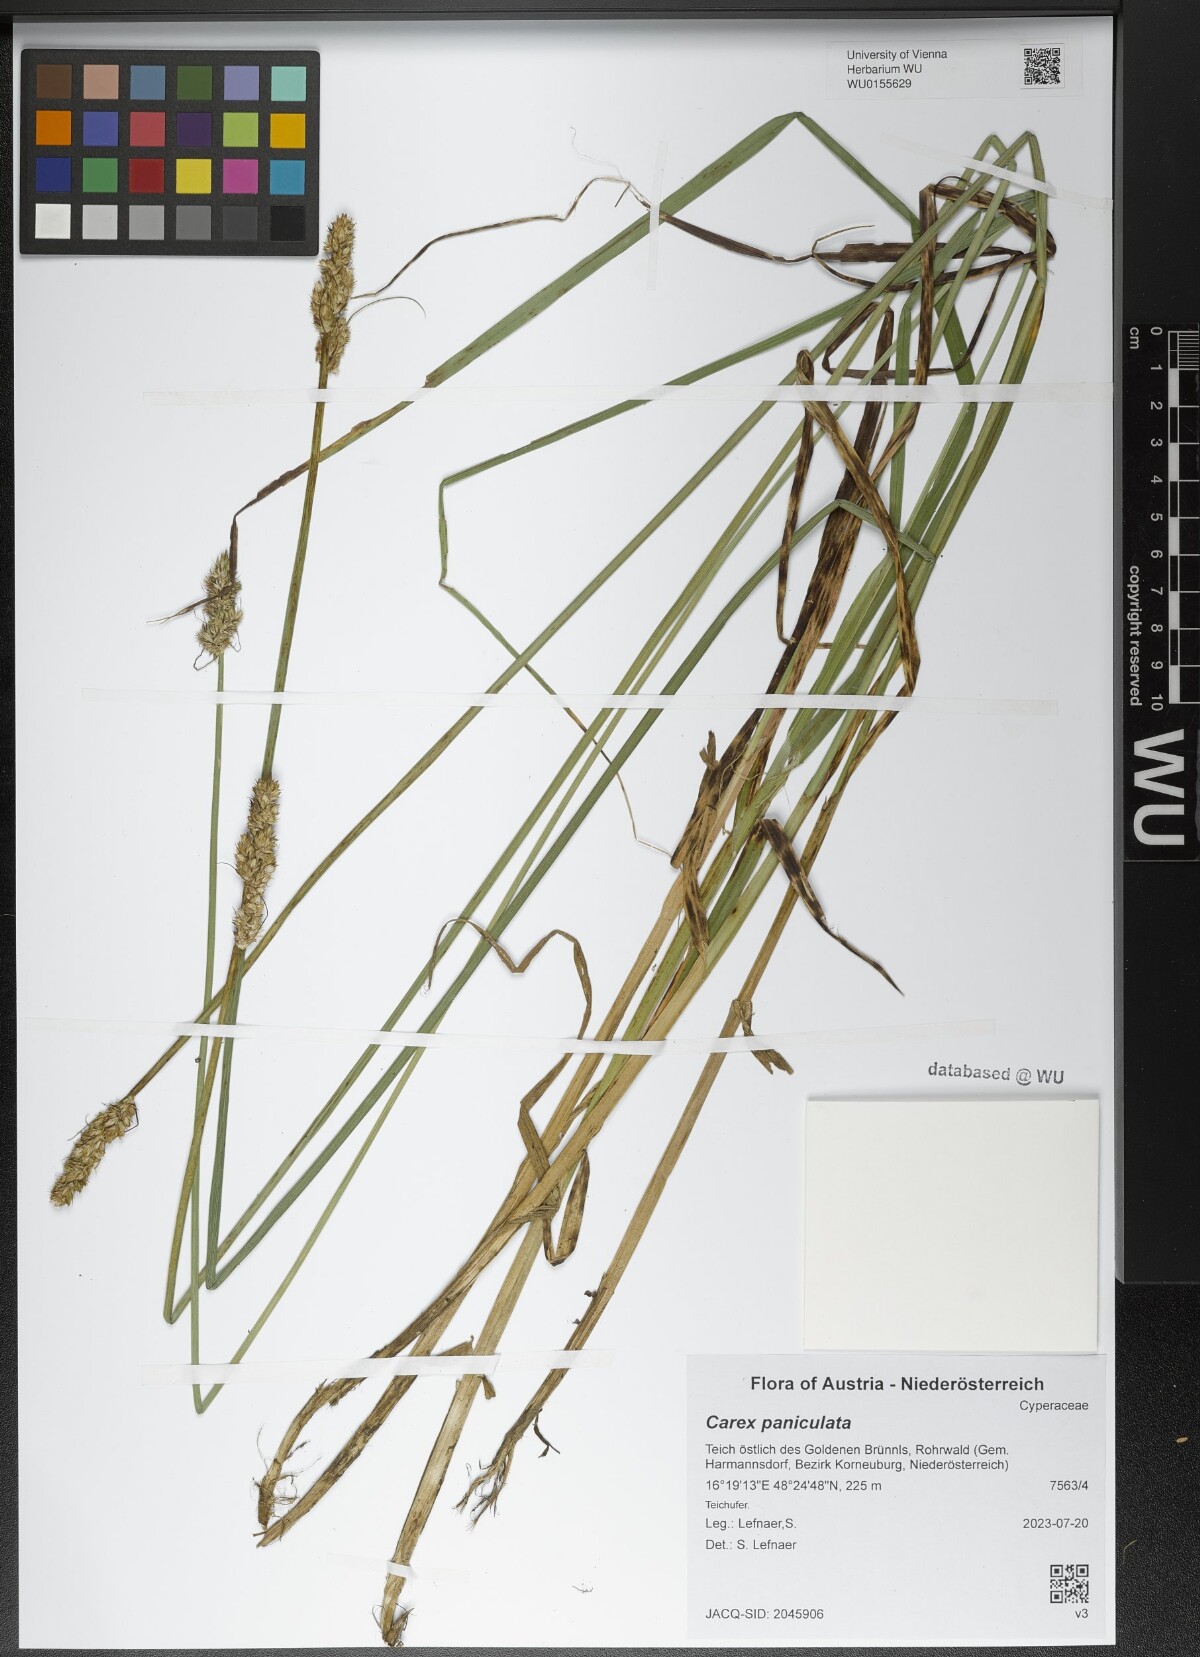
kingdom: Plantae
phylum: Tracheophyta
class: Liliopsida
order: Poales
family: Cyperaceae
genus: Carex
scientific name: Carex paniculata
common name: Greater tussock-sedge
